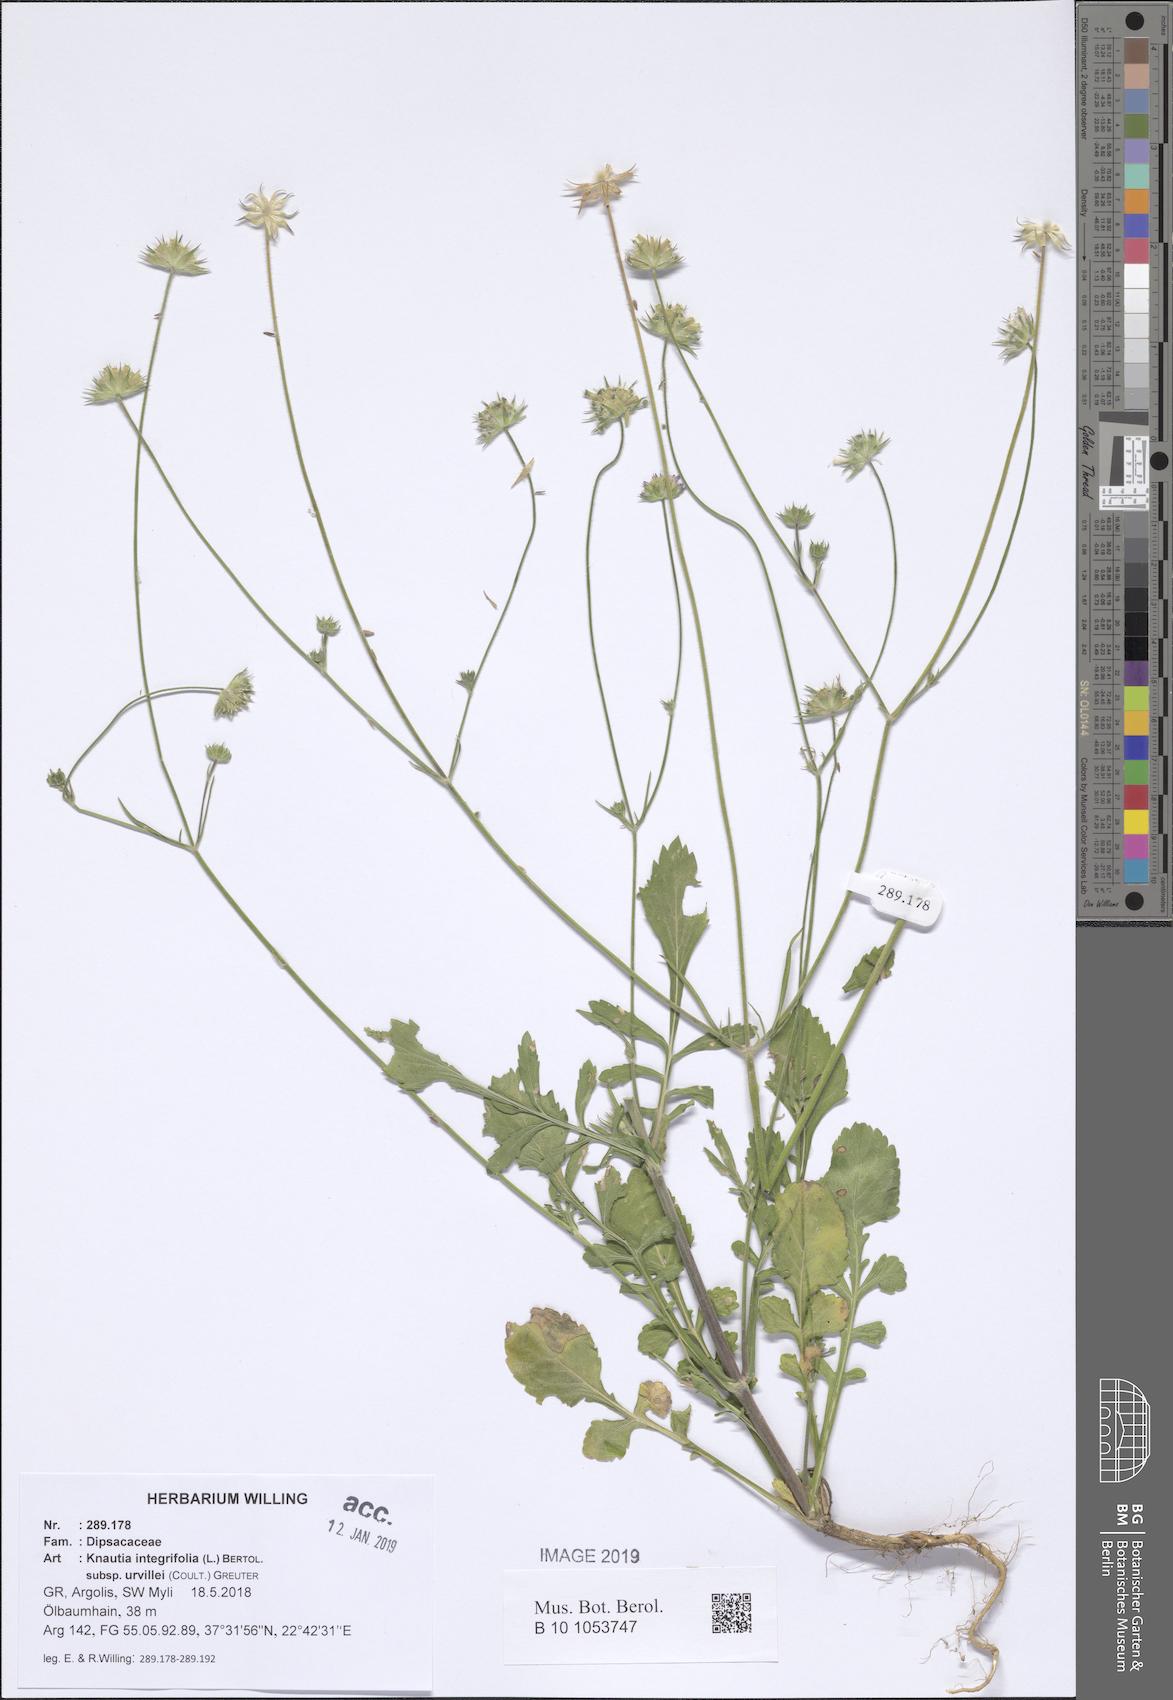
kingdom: Plantae
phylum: Tracheophyta
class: Magnoliopsida
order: Dipsacales
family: Caprifoliaceae
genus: Knautia
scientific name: Knautia integrifolia
